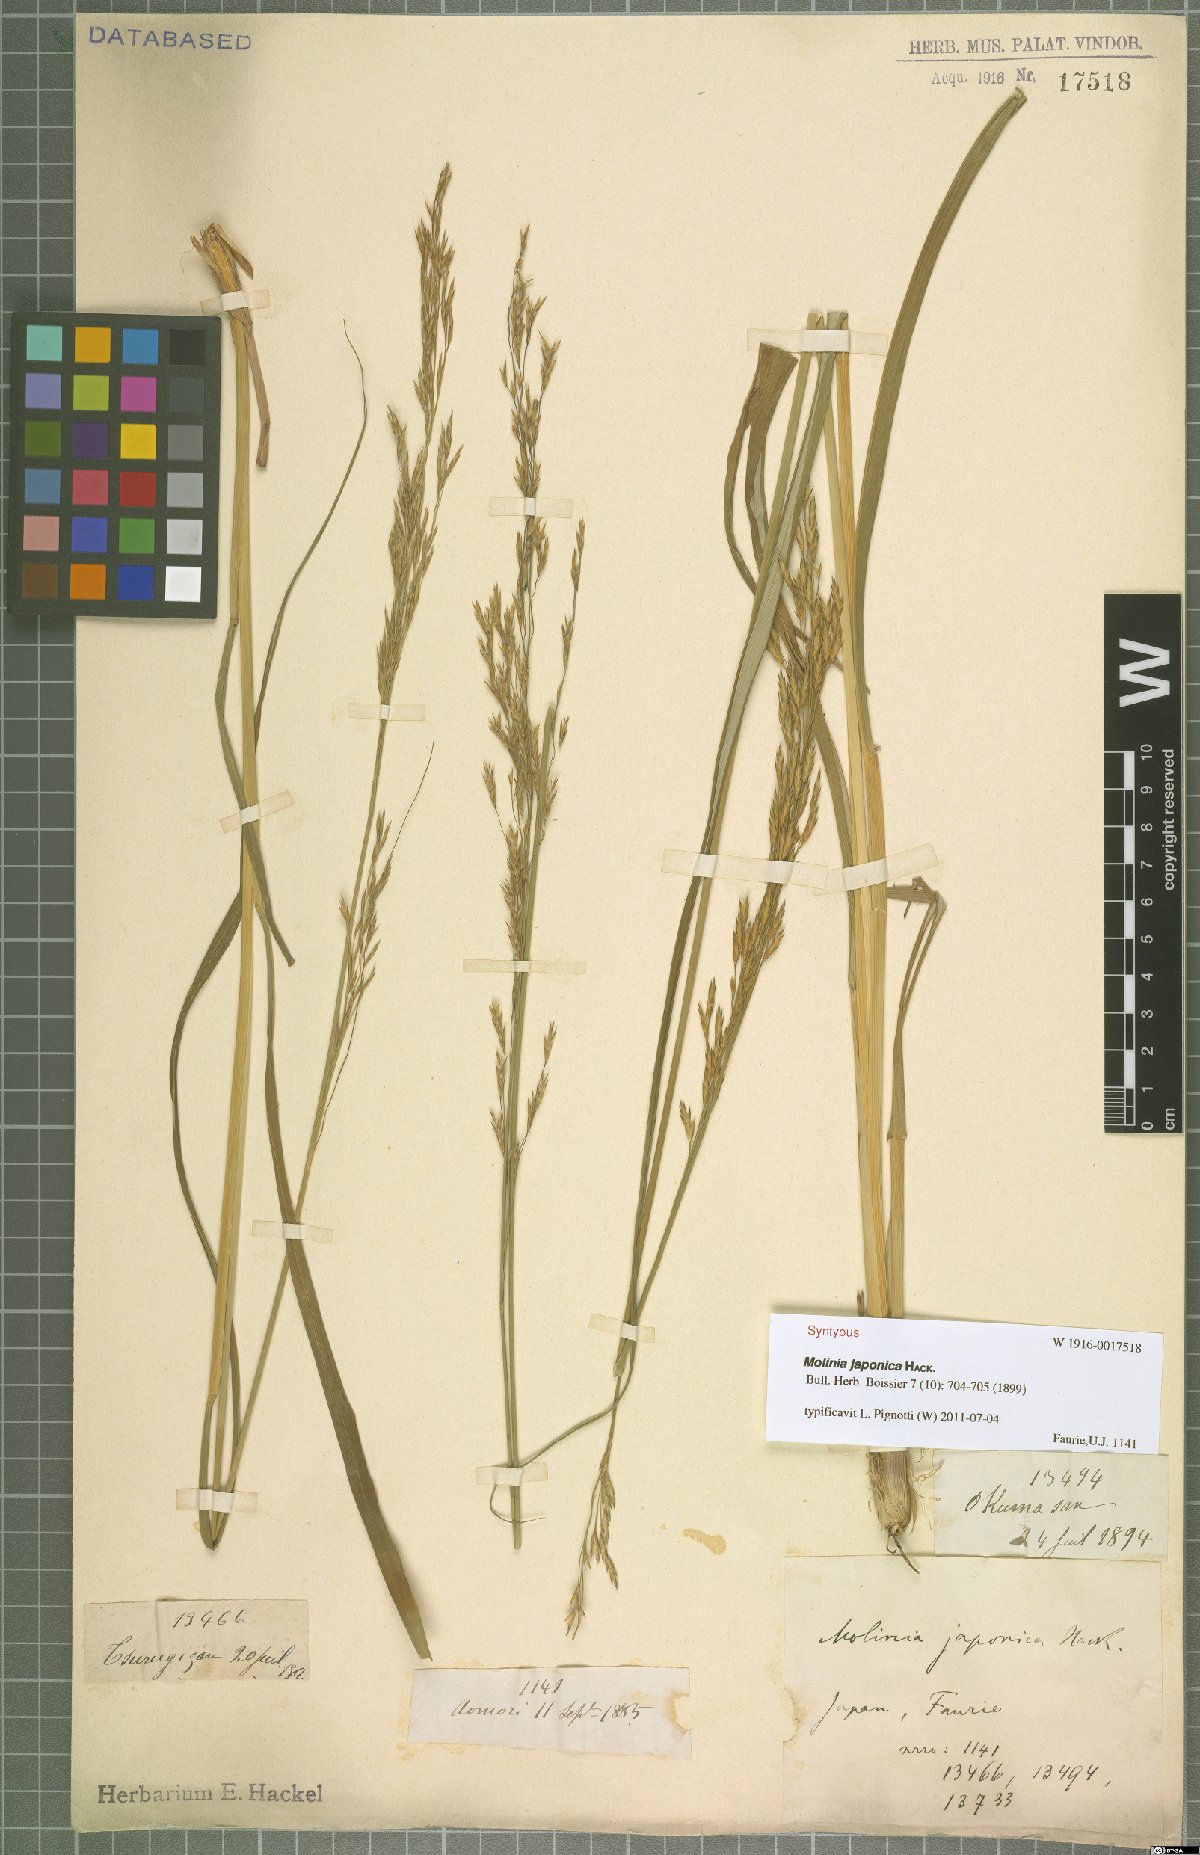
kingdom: Plantae
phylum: Tracheophyta
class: Liliopsida
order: Poales
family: Poaceae
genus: Moliniopsis
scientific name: Moliniopsis japonica
